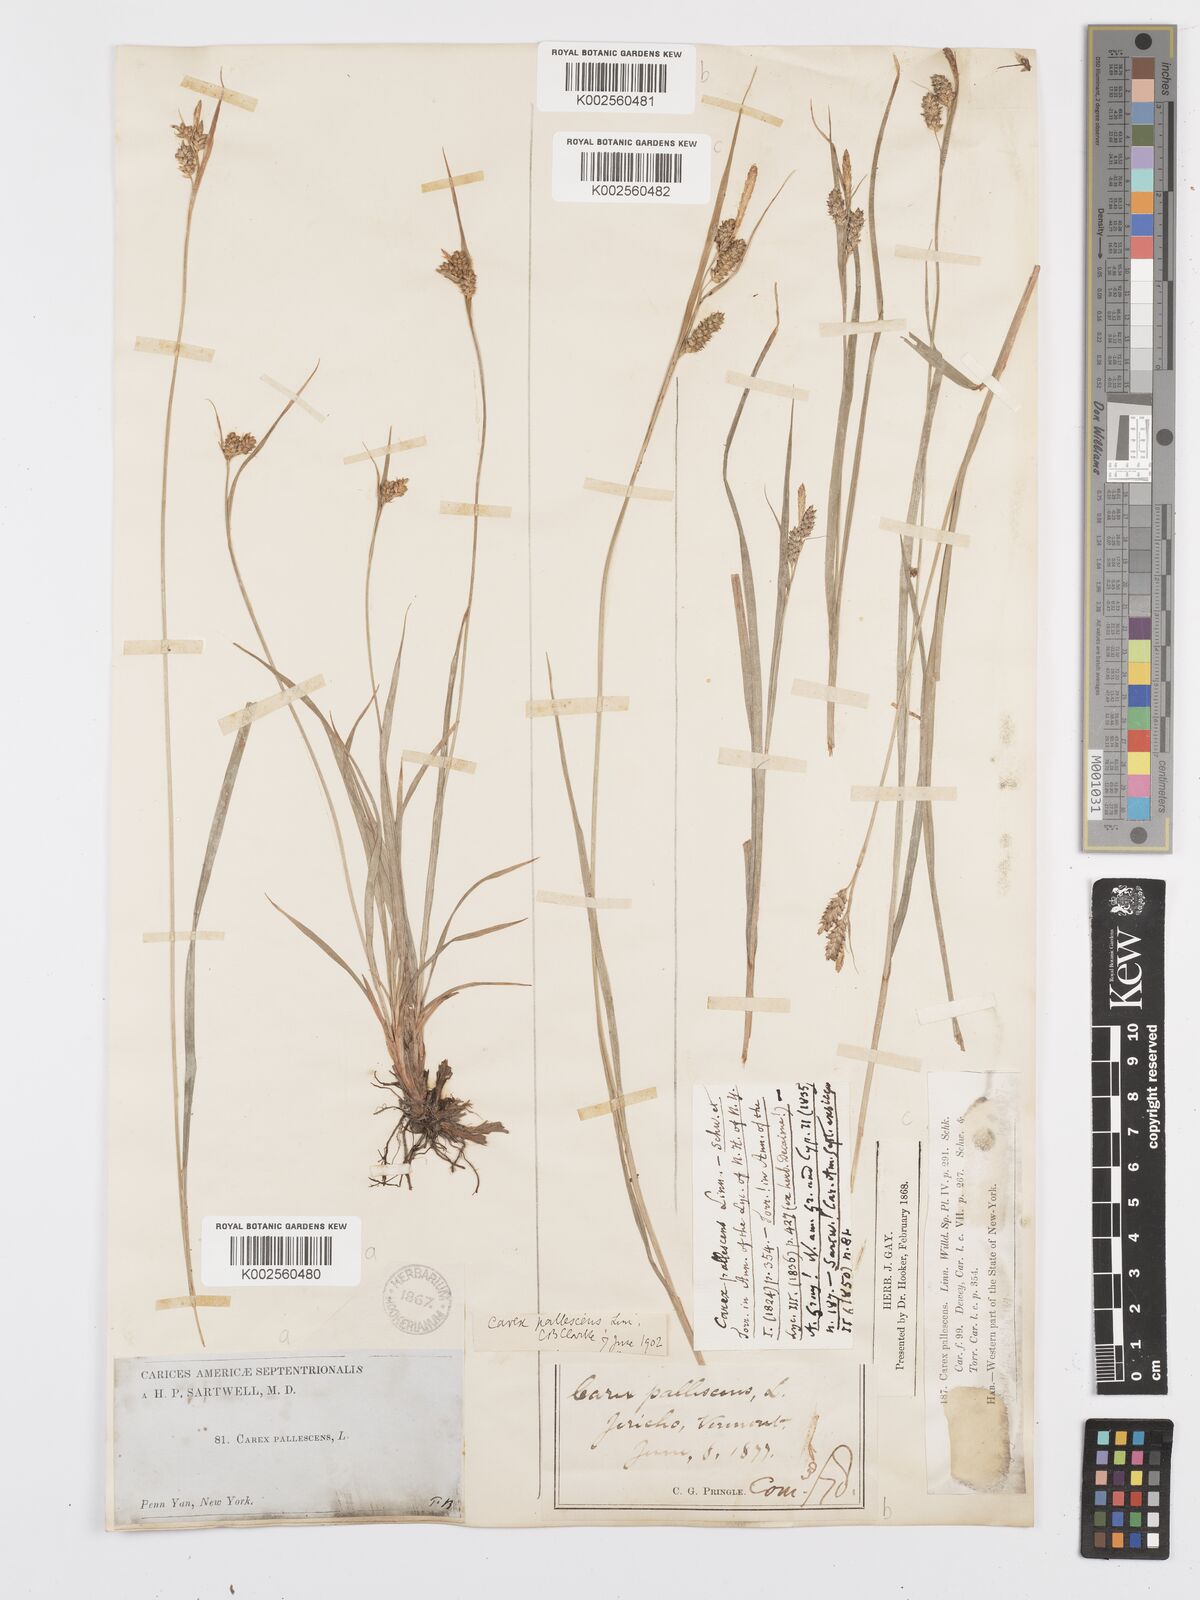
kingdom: Plantae
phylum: Tracheophyta
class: Liliopsida
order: Poales
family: Cyperaceae
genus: Carex
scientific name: Carex pallescens
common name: Pale sedge
